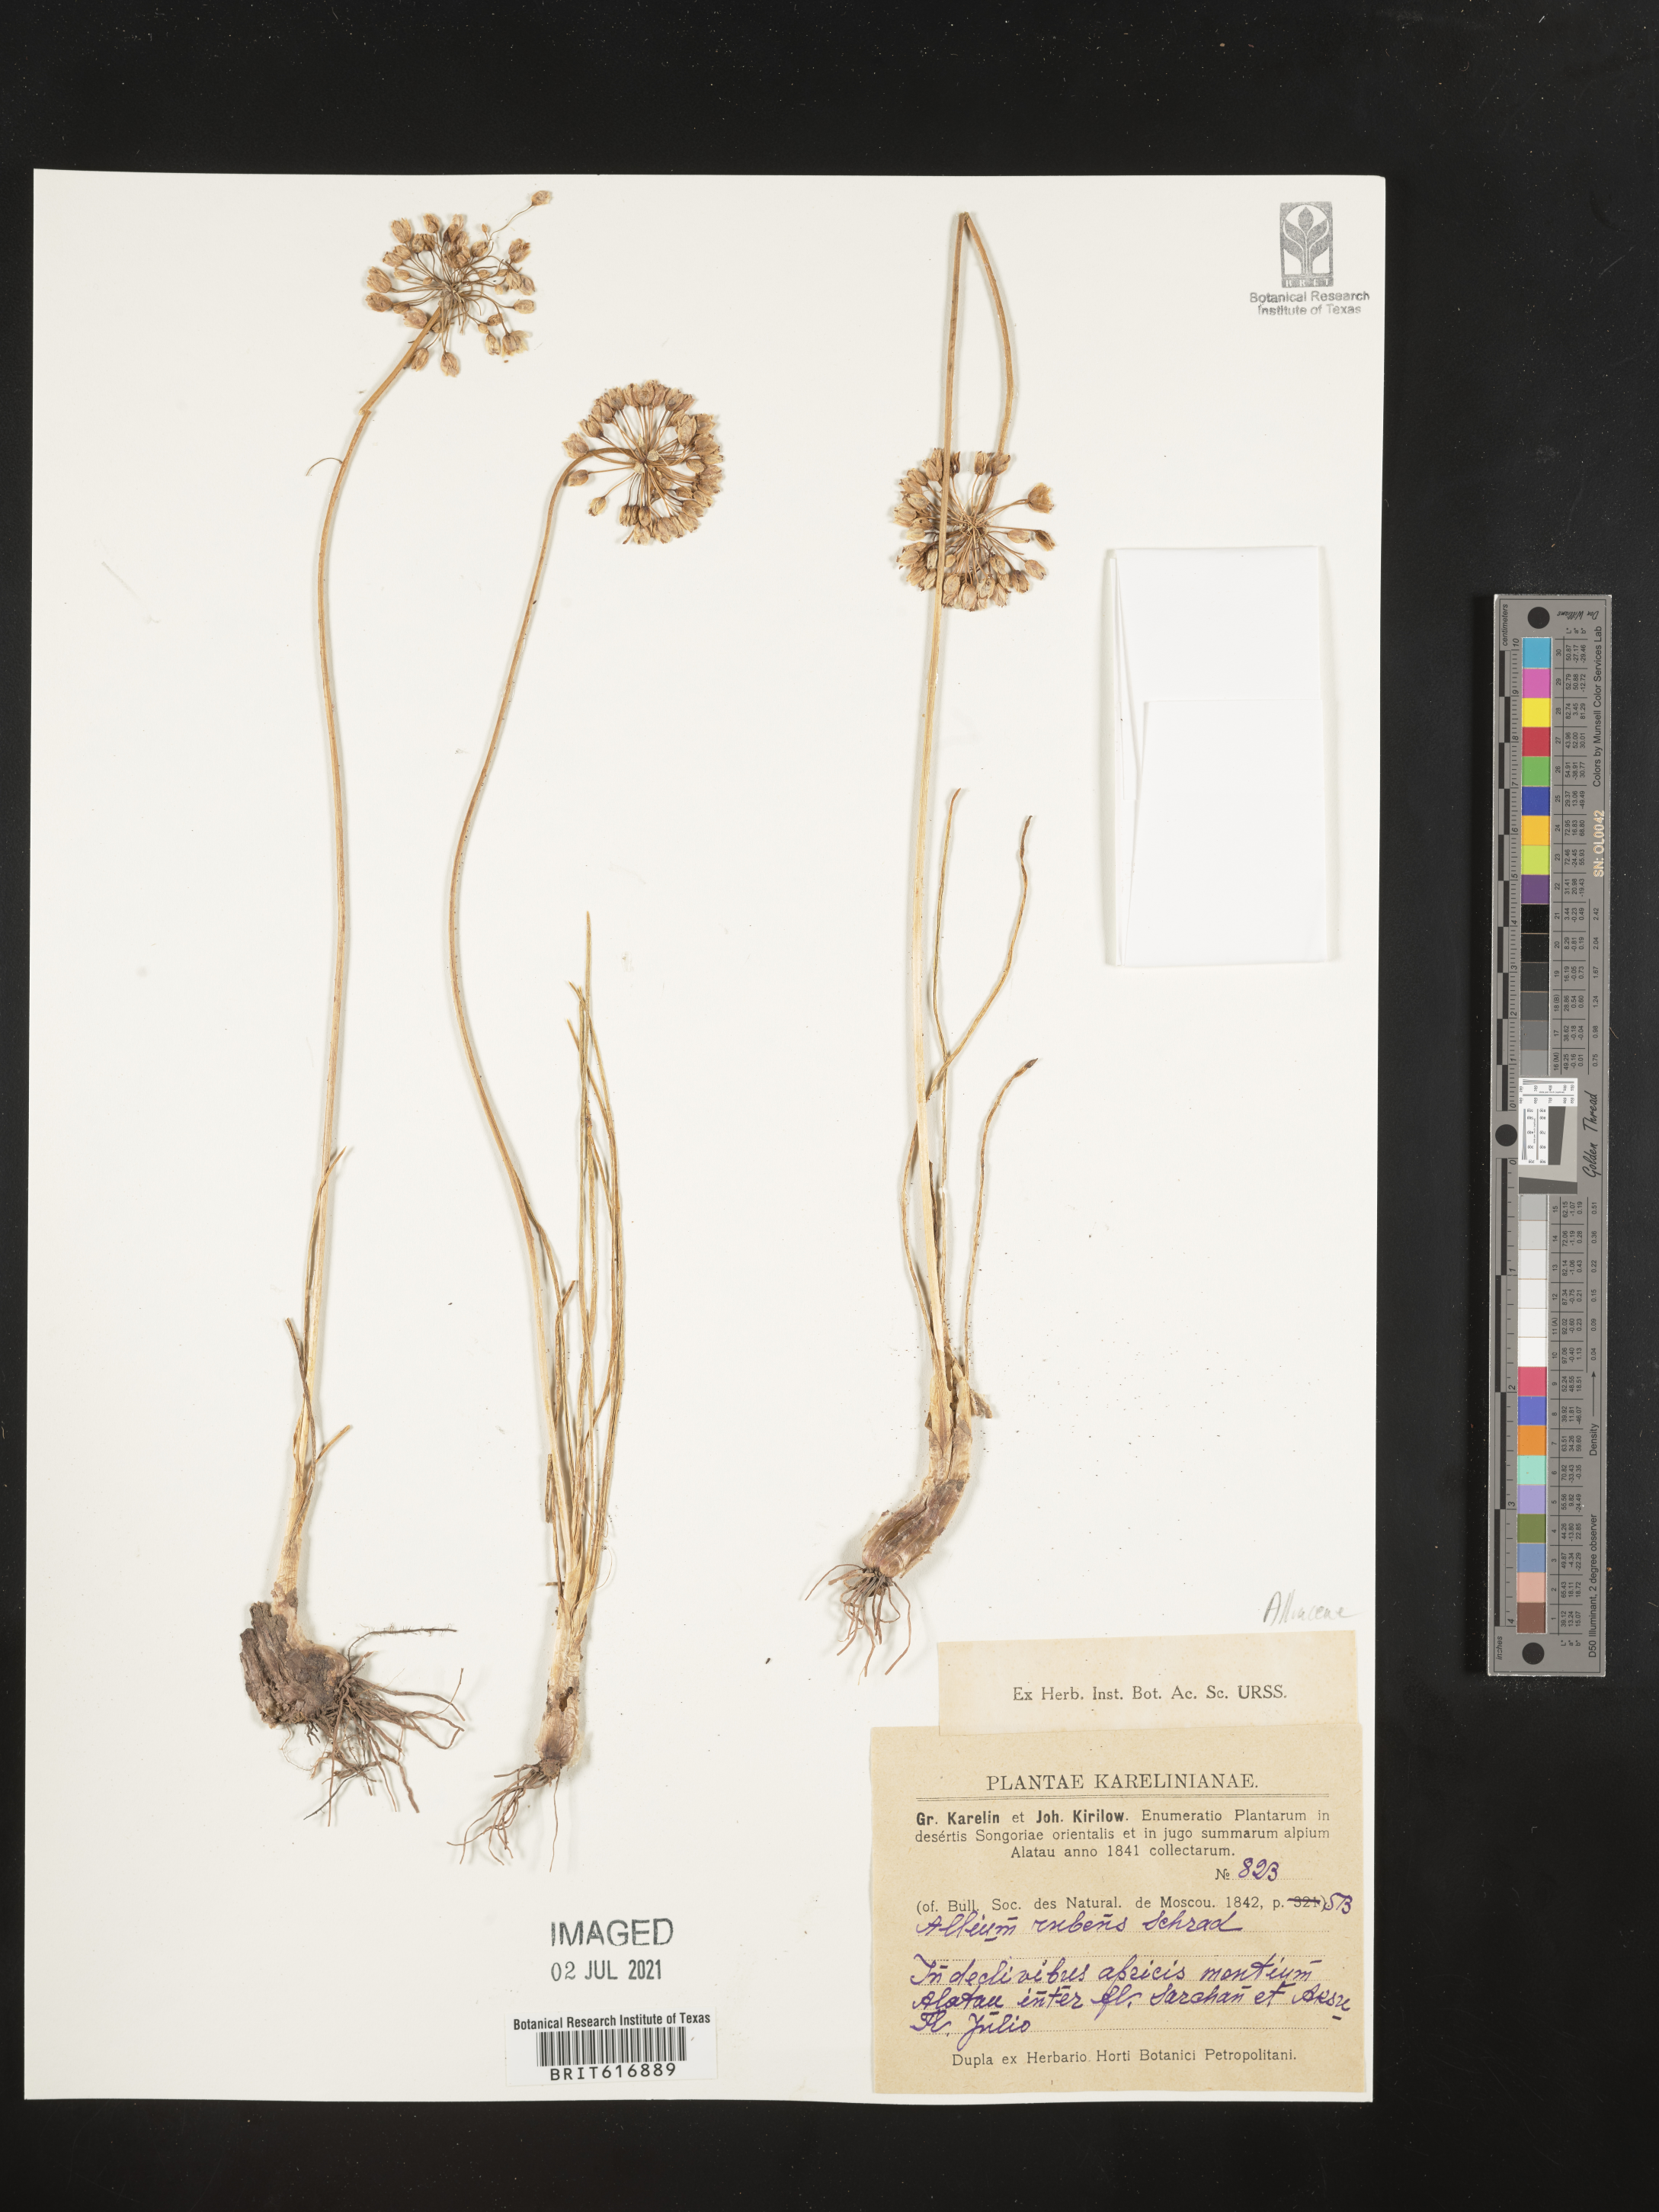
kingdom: Plantae
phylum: Tracheophyta
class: Liliopsida
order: Asparagales
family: Amaryllidaceae
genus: Allium
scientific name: Allium rubens
